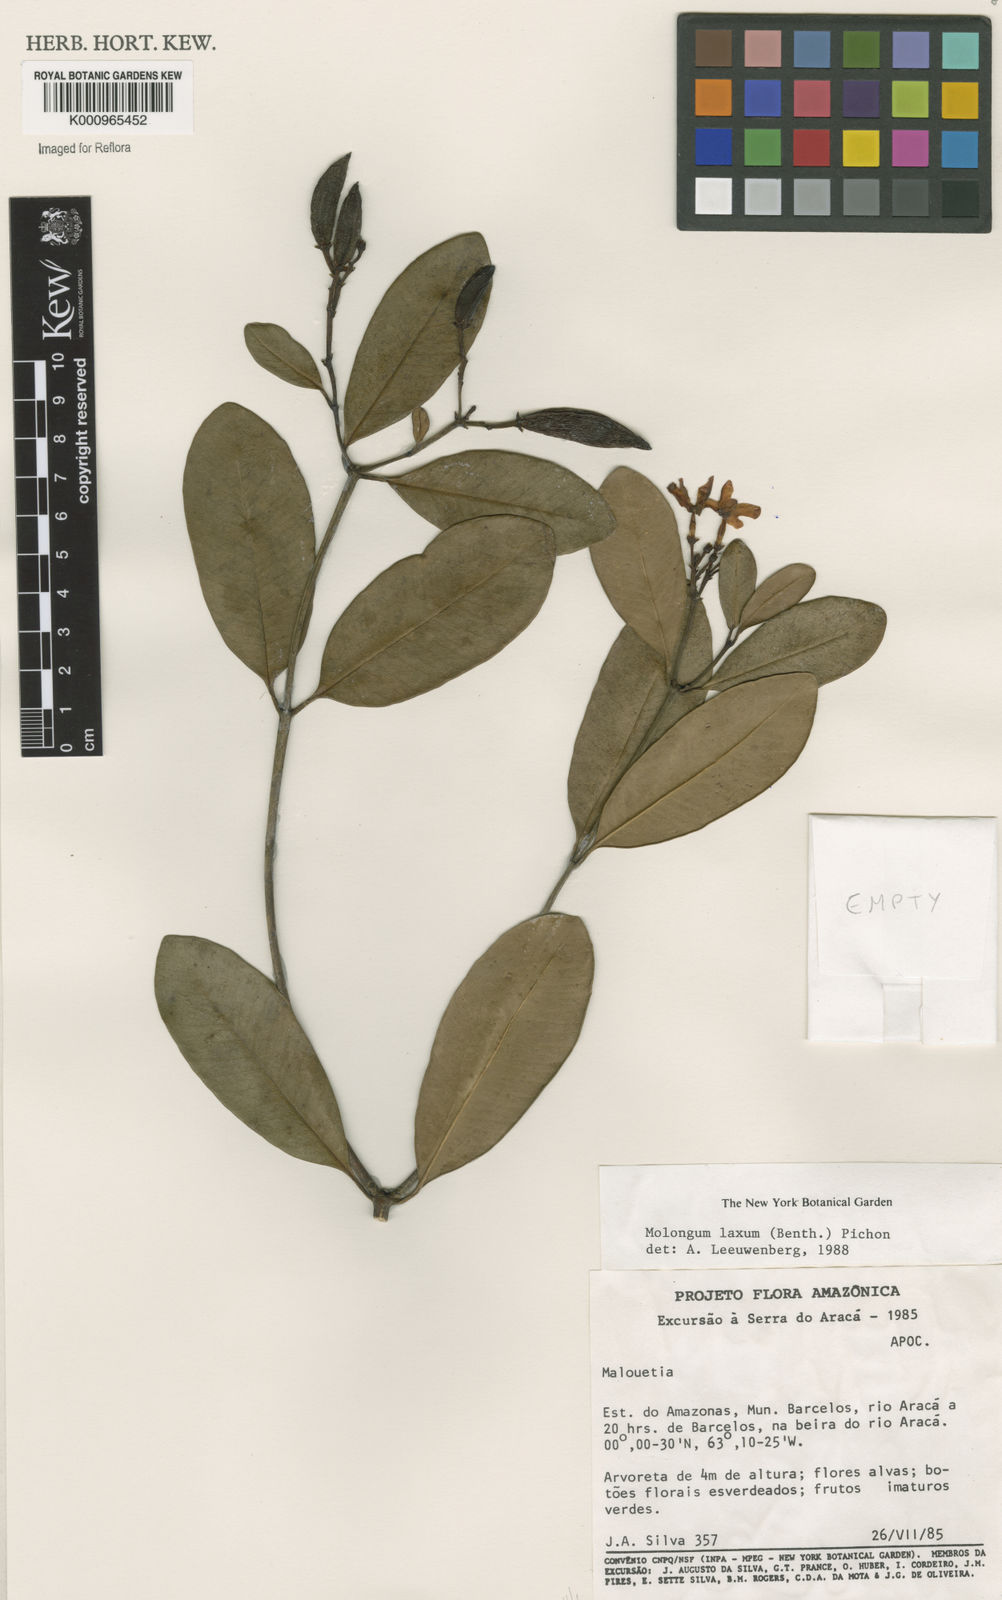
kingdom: Plantae
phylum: Tracheophyta
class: Magnoliopsida
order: Gentianales
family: Apocynaceae
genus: Molongum
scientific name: Molongum laxum
